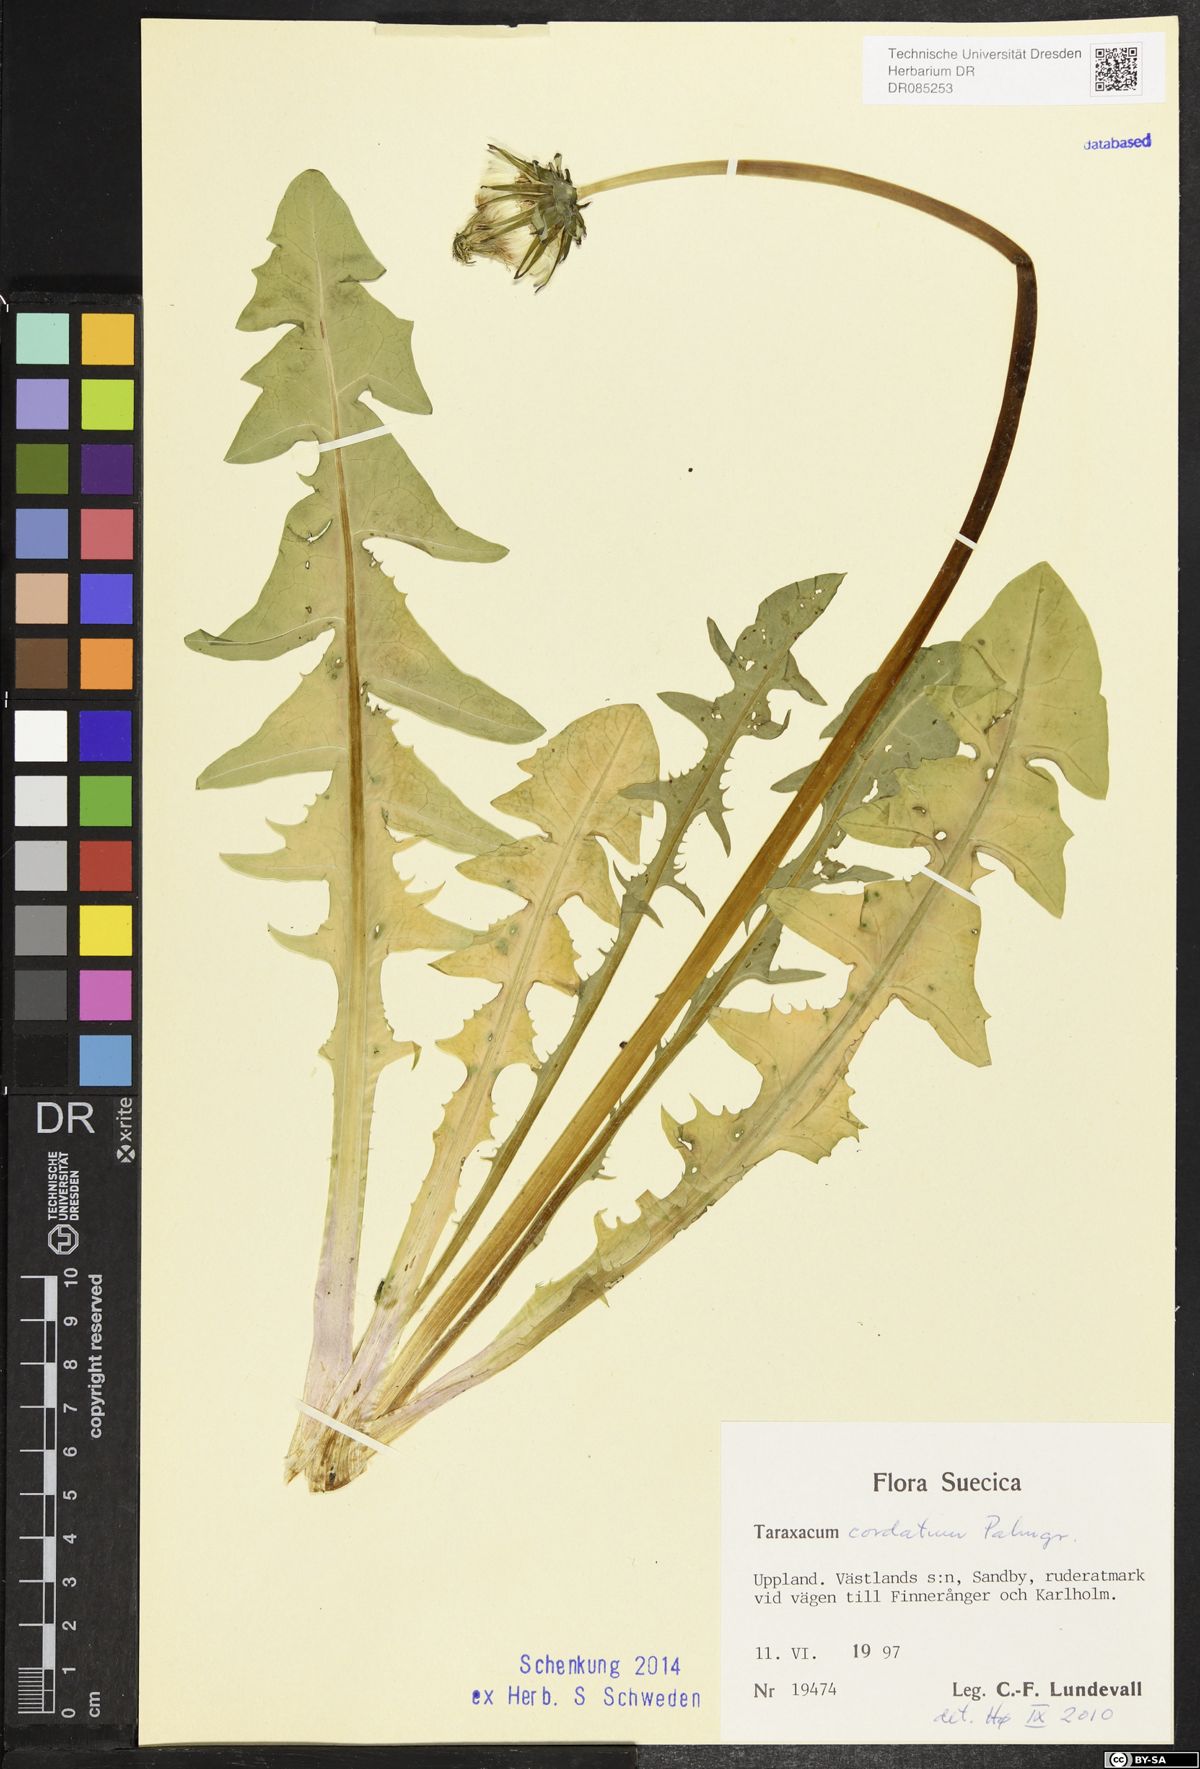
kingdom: Plantae
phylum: Tracheophyta
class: Magnoliopsida
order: Asterales
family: Asteraceae
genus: Taraxacum
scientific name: Taraxacum cordatum
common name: Entire-lobed dandelion
